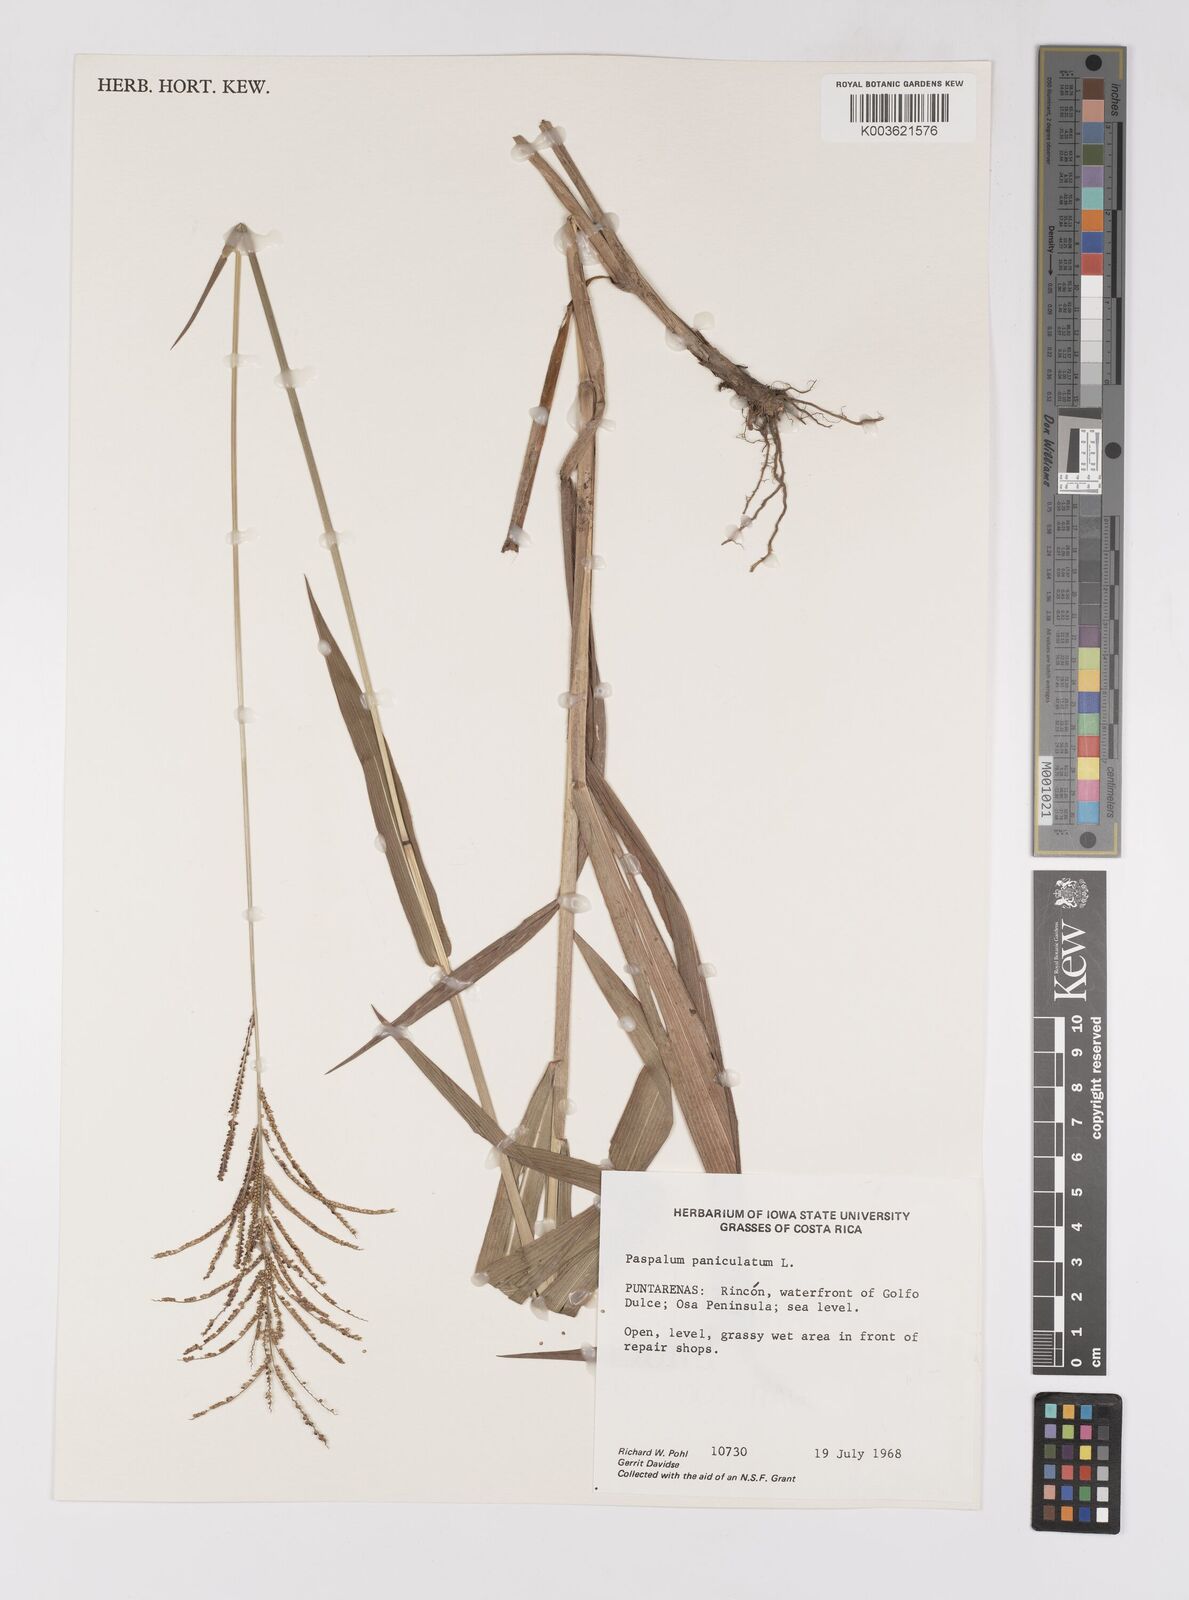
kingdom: Plantae
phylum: Tracheophyta
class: Liliopsida
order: Poales
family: Poaceae
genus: Paspalum
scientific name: Paspalum paniculatum
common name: Arrocillo
